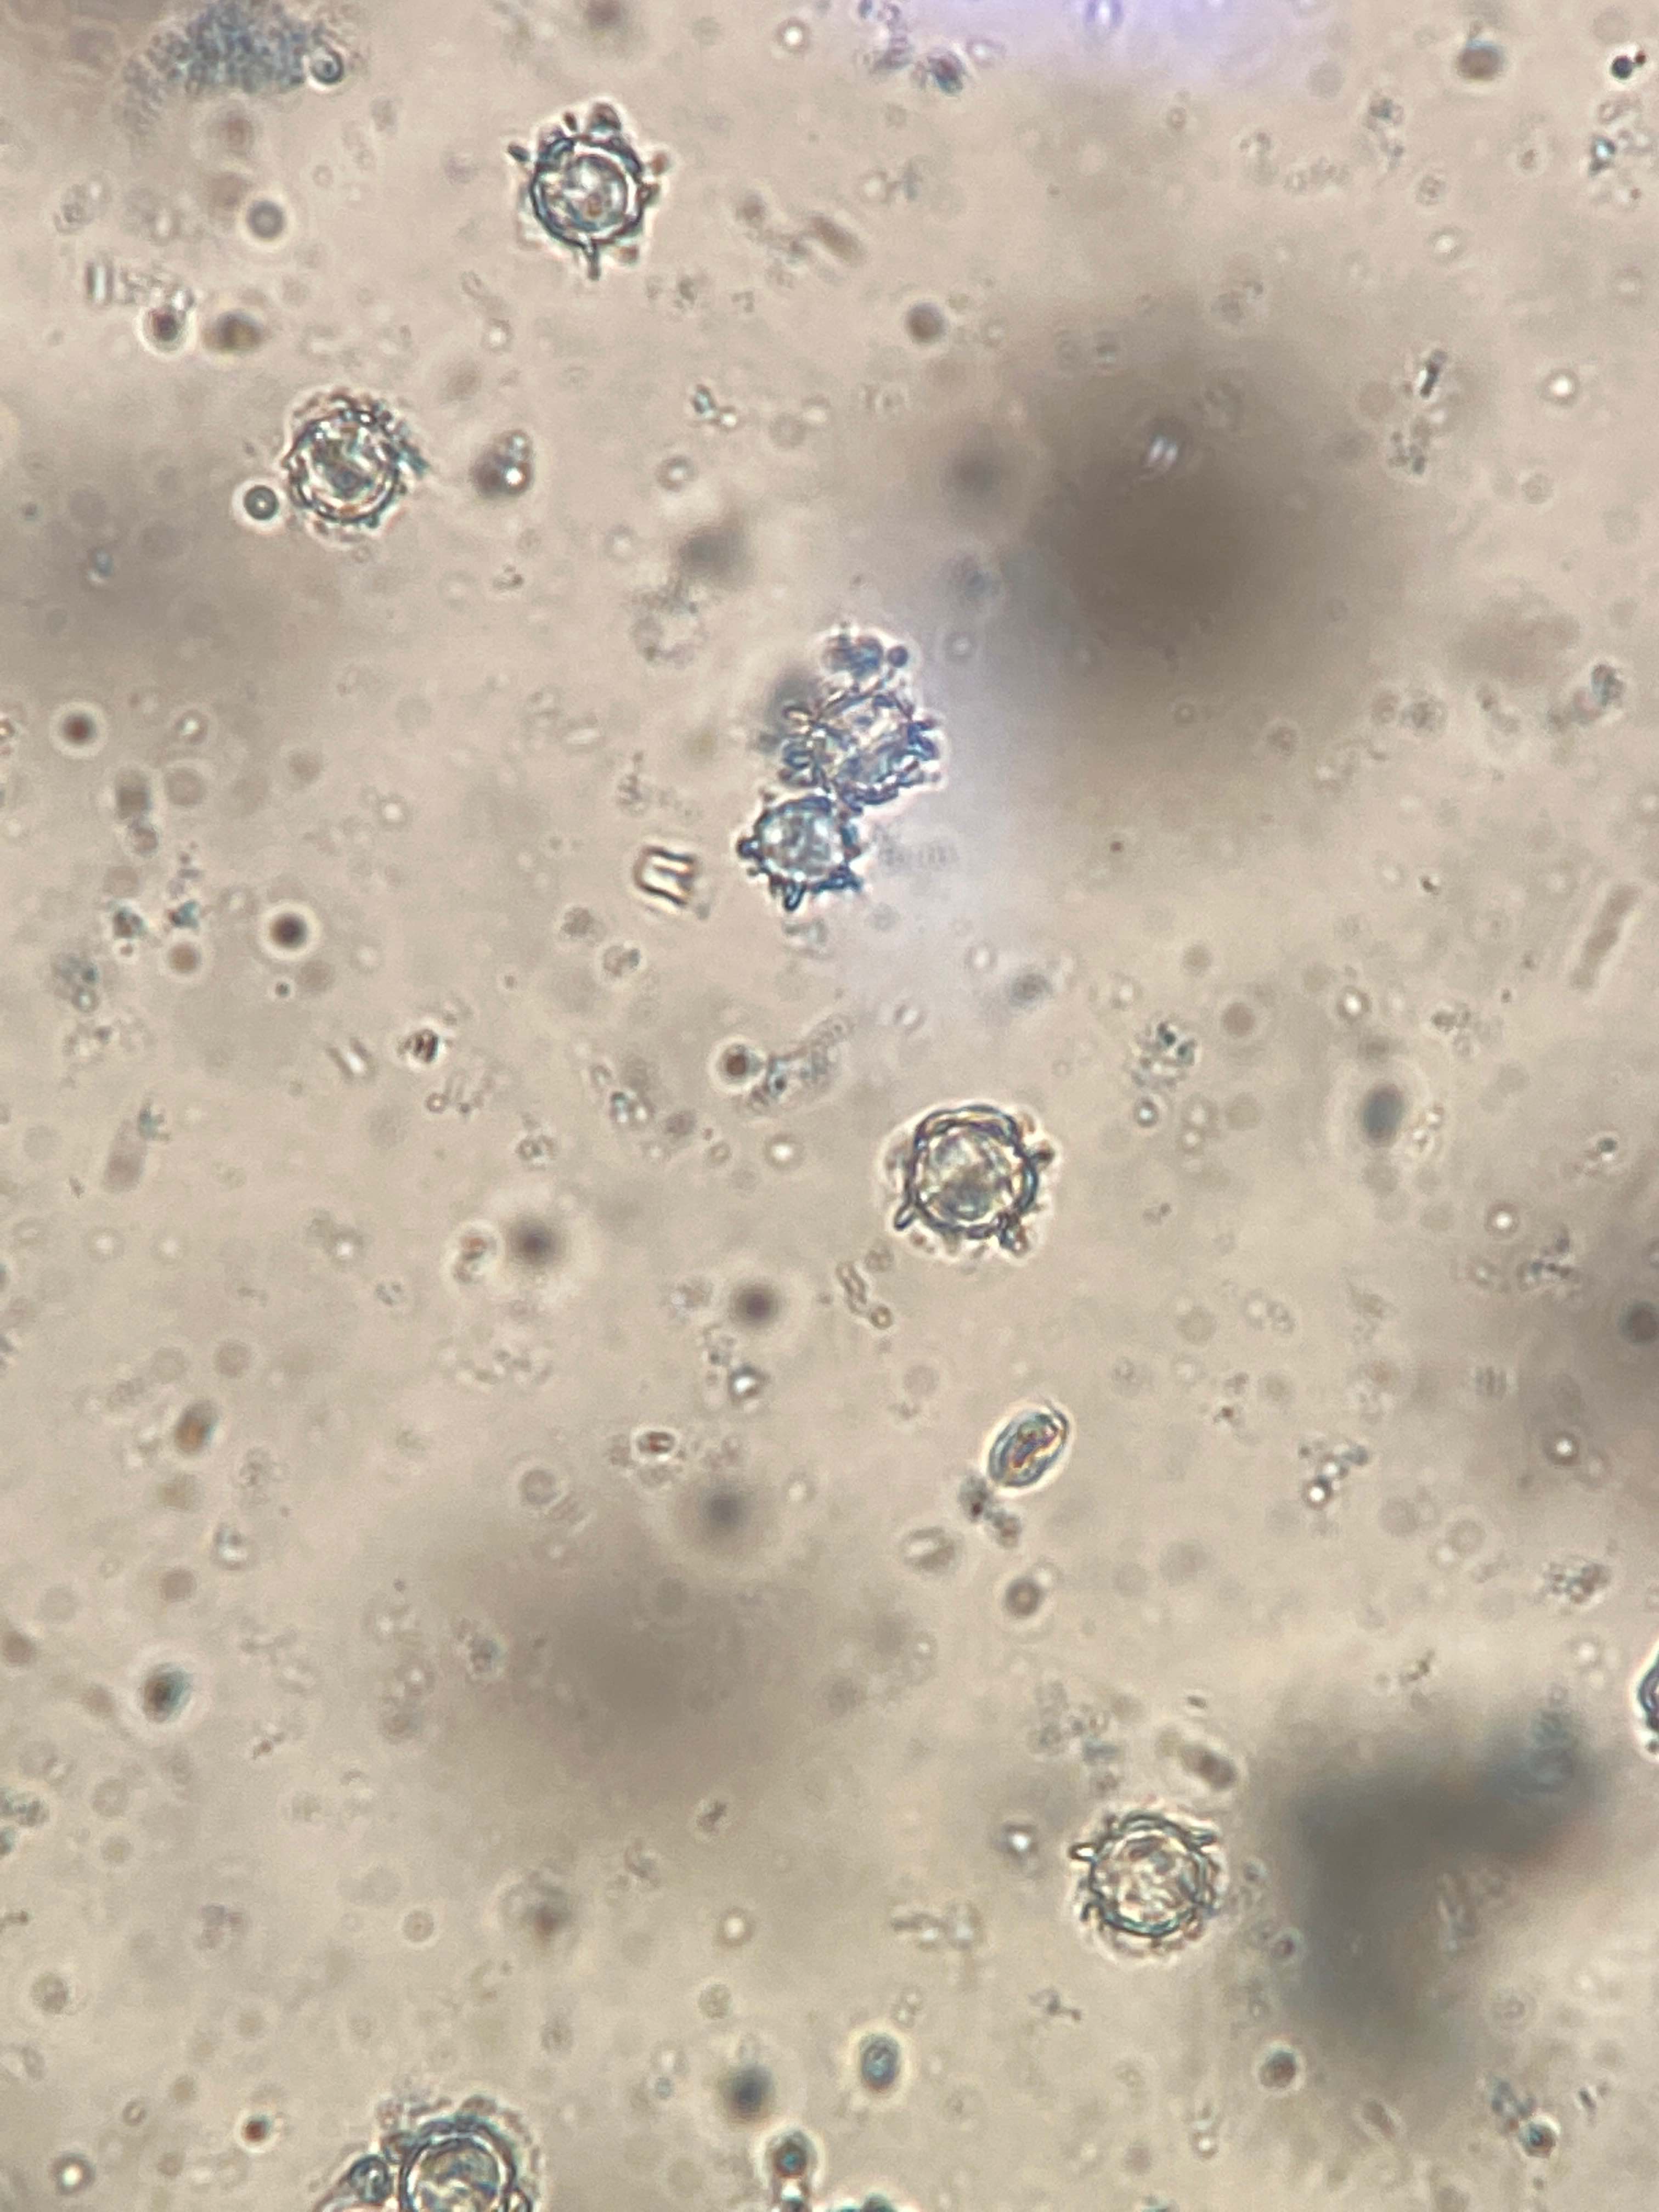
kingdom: Fungi
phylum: Basidiomycota
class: Agaricomycetes
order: Russulales
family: Russulaceae
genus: Lactarius
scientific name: Lactarius pterosporus
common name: vingesporet mælkehat
